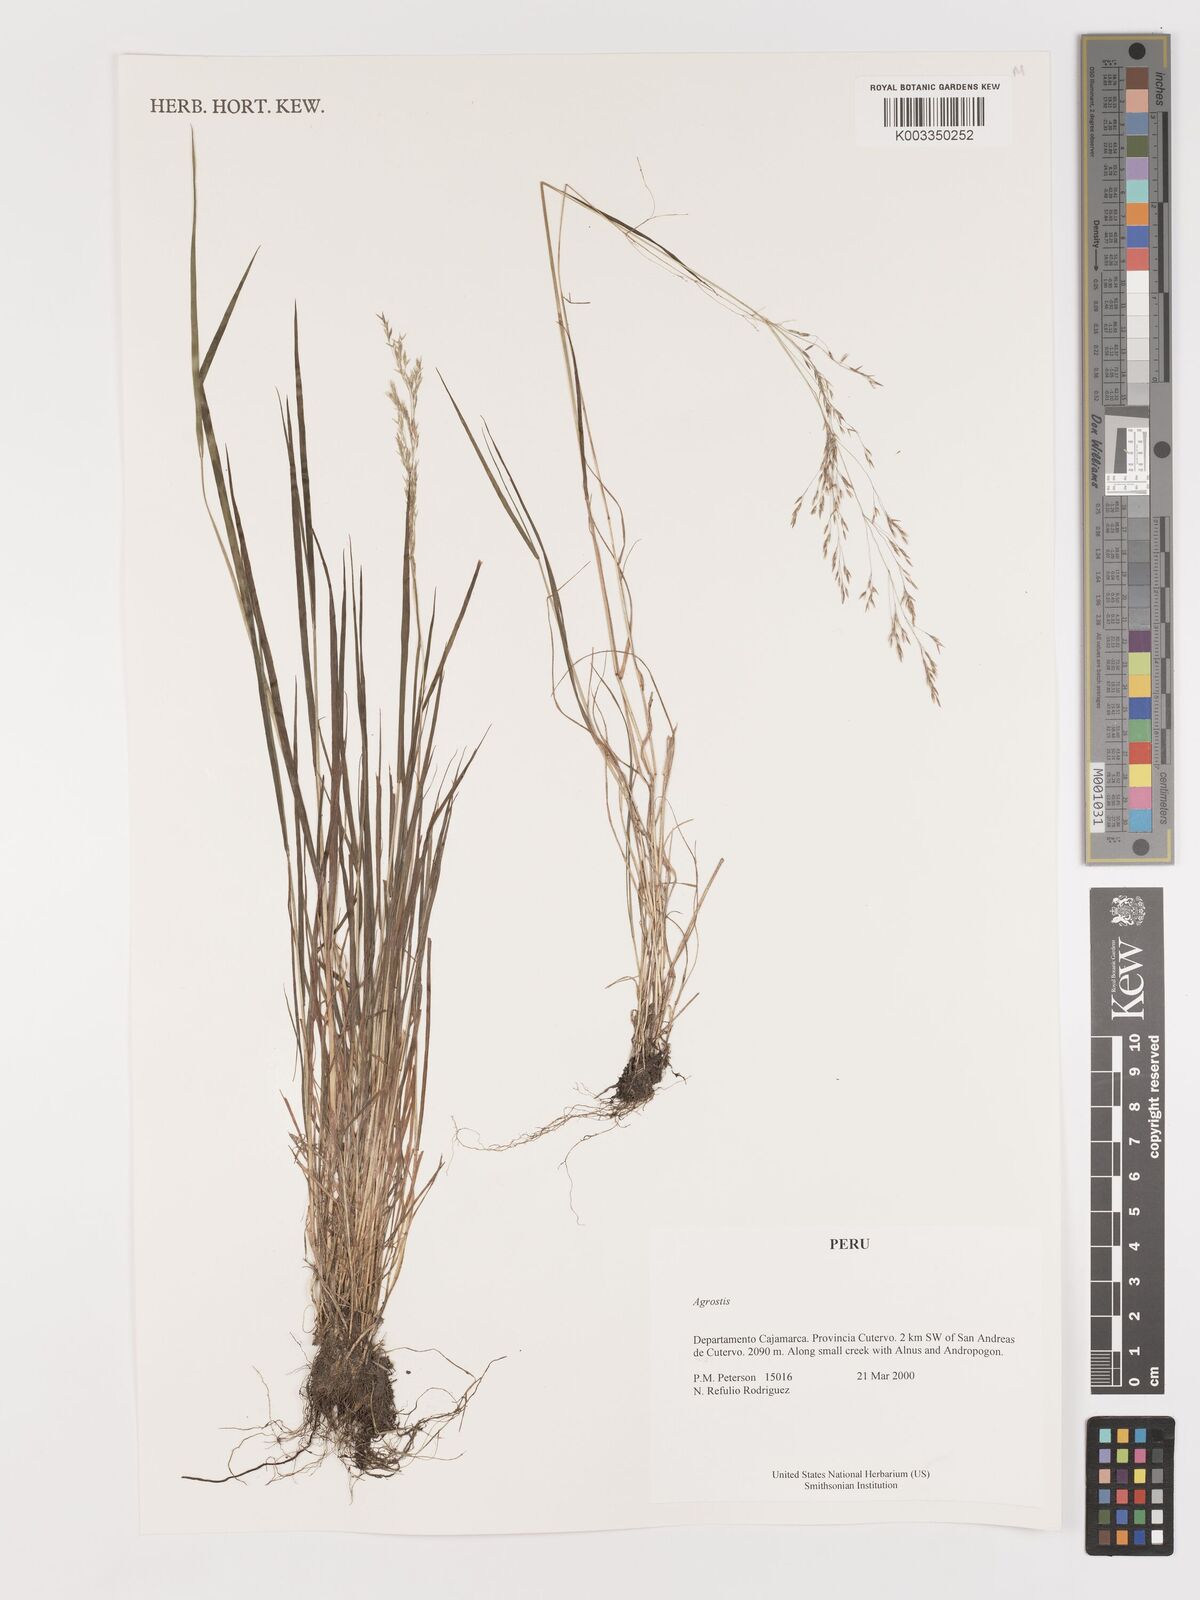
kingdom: Plantae
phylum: Tracheophyta
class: Liliopsida
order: Poales
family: Poaceae
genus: Agrostis
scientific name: Agrostis
